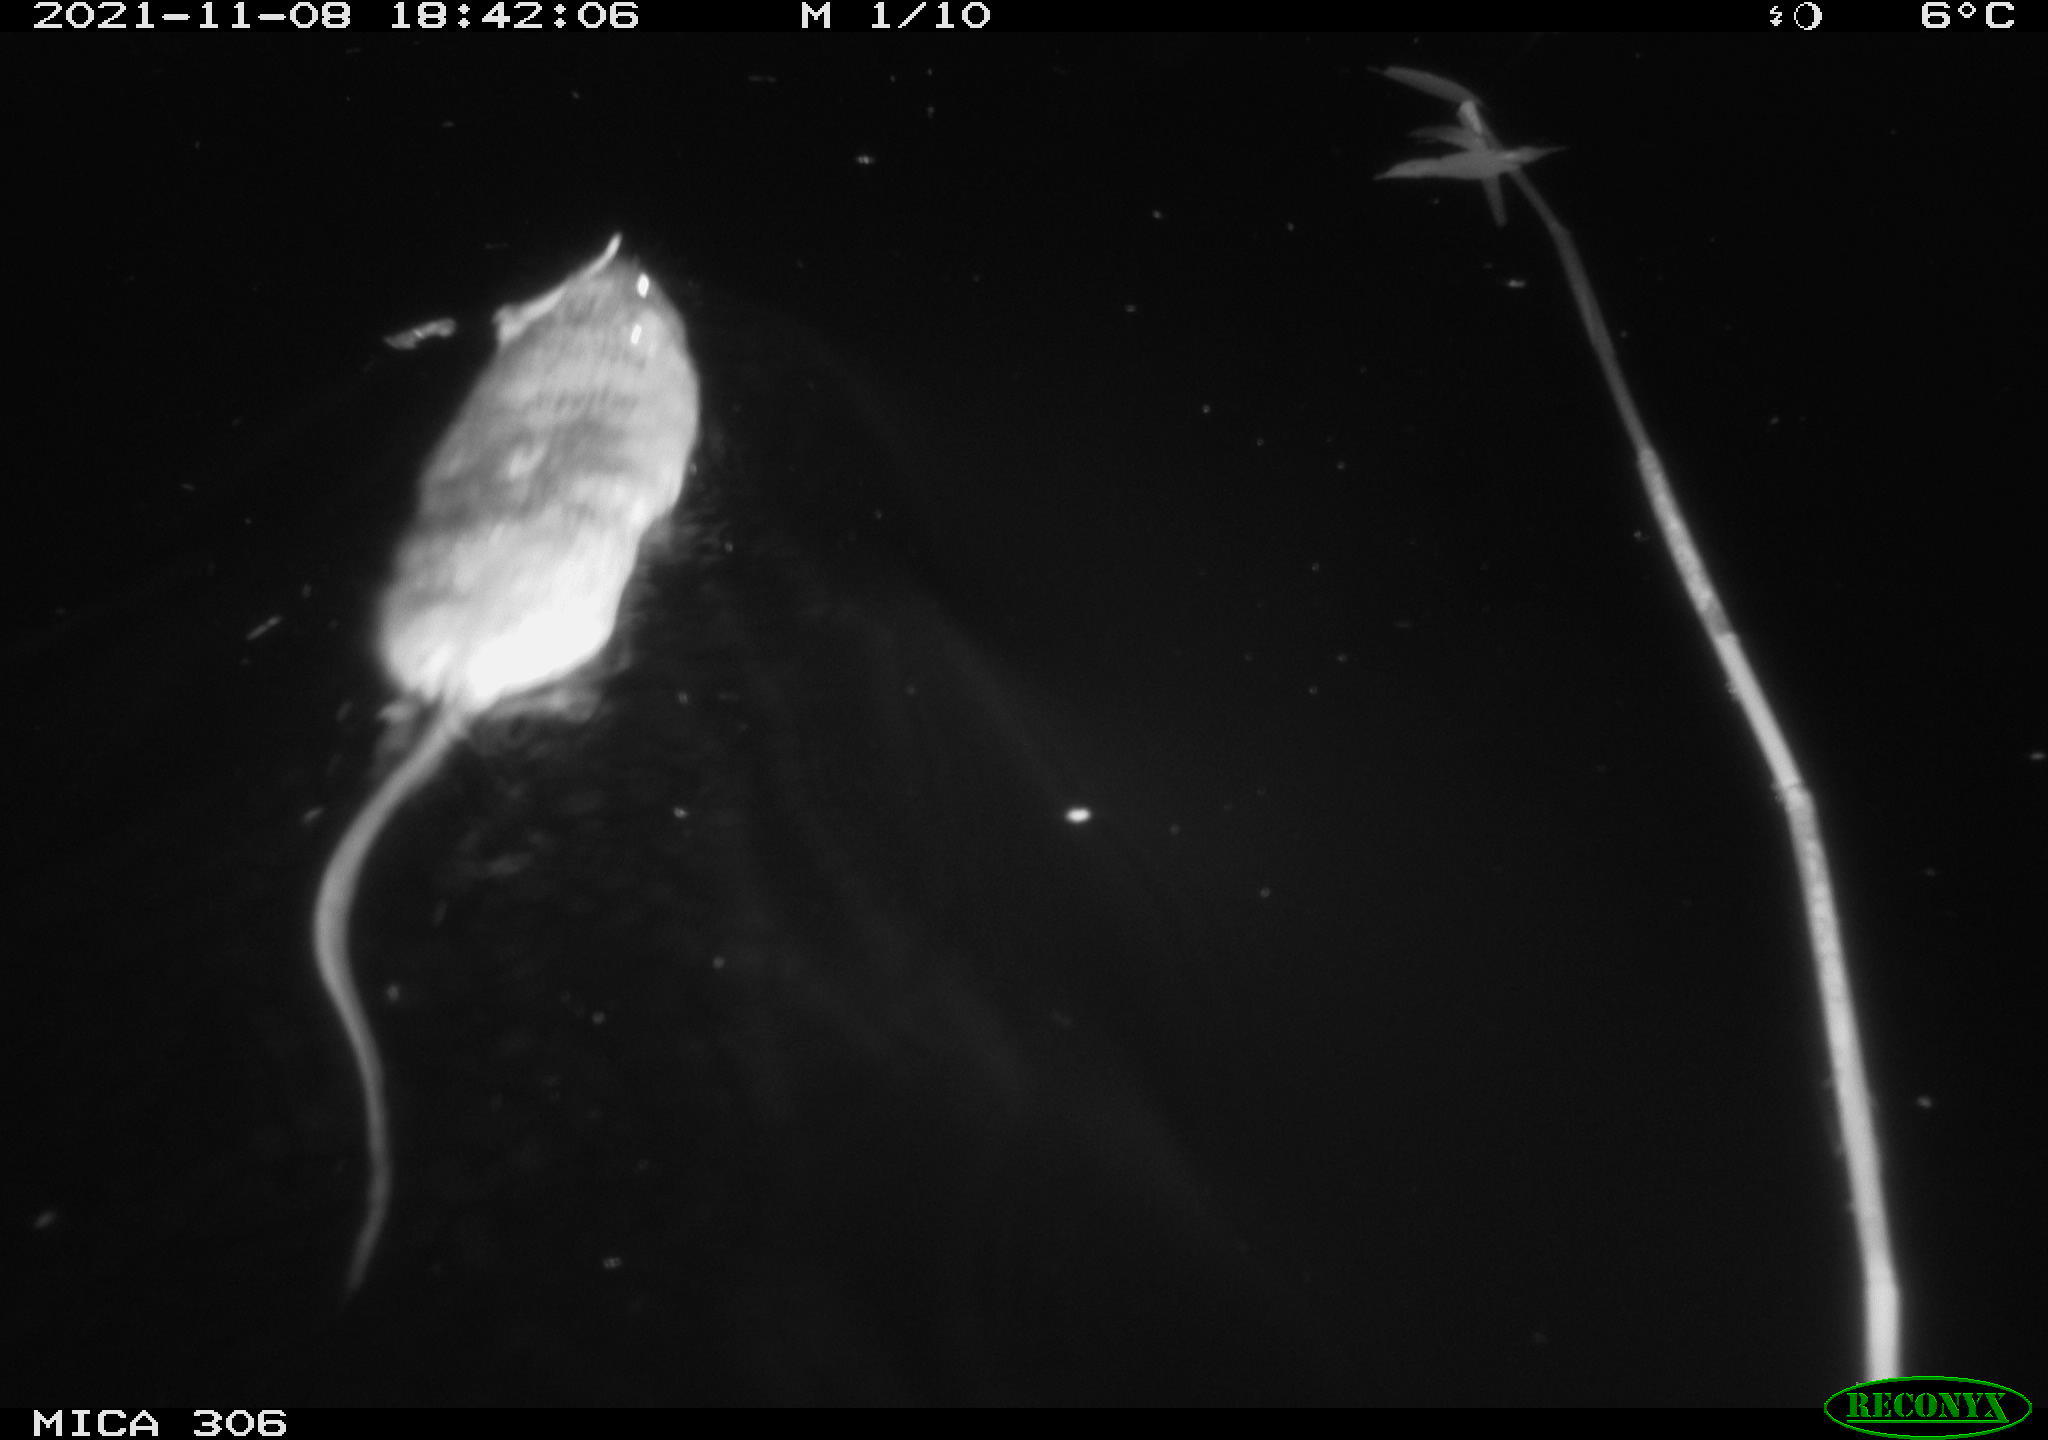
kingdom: Animalia
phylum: Chordata
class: Mammalia
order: Rodentia
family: Cricetidae
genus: Ondatra
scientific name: Ondatra zibethicus
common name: Muskrat
